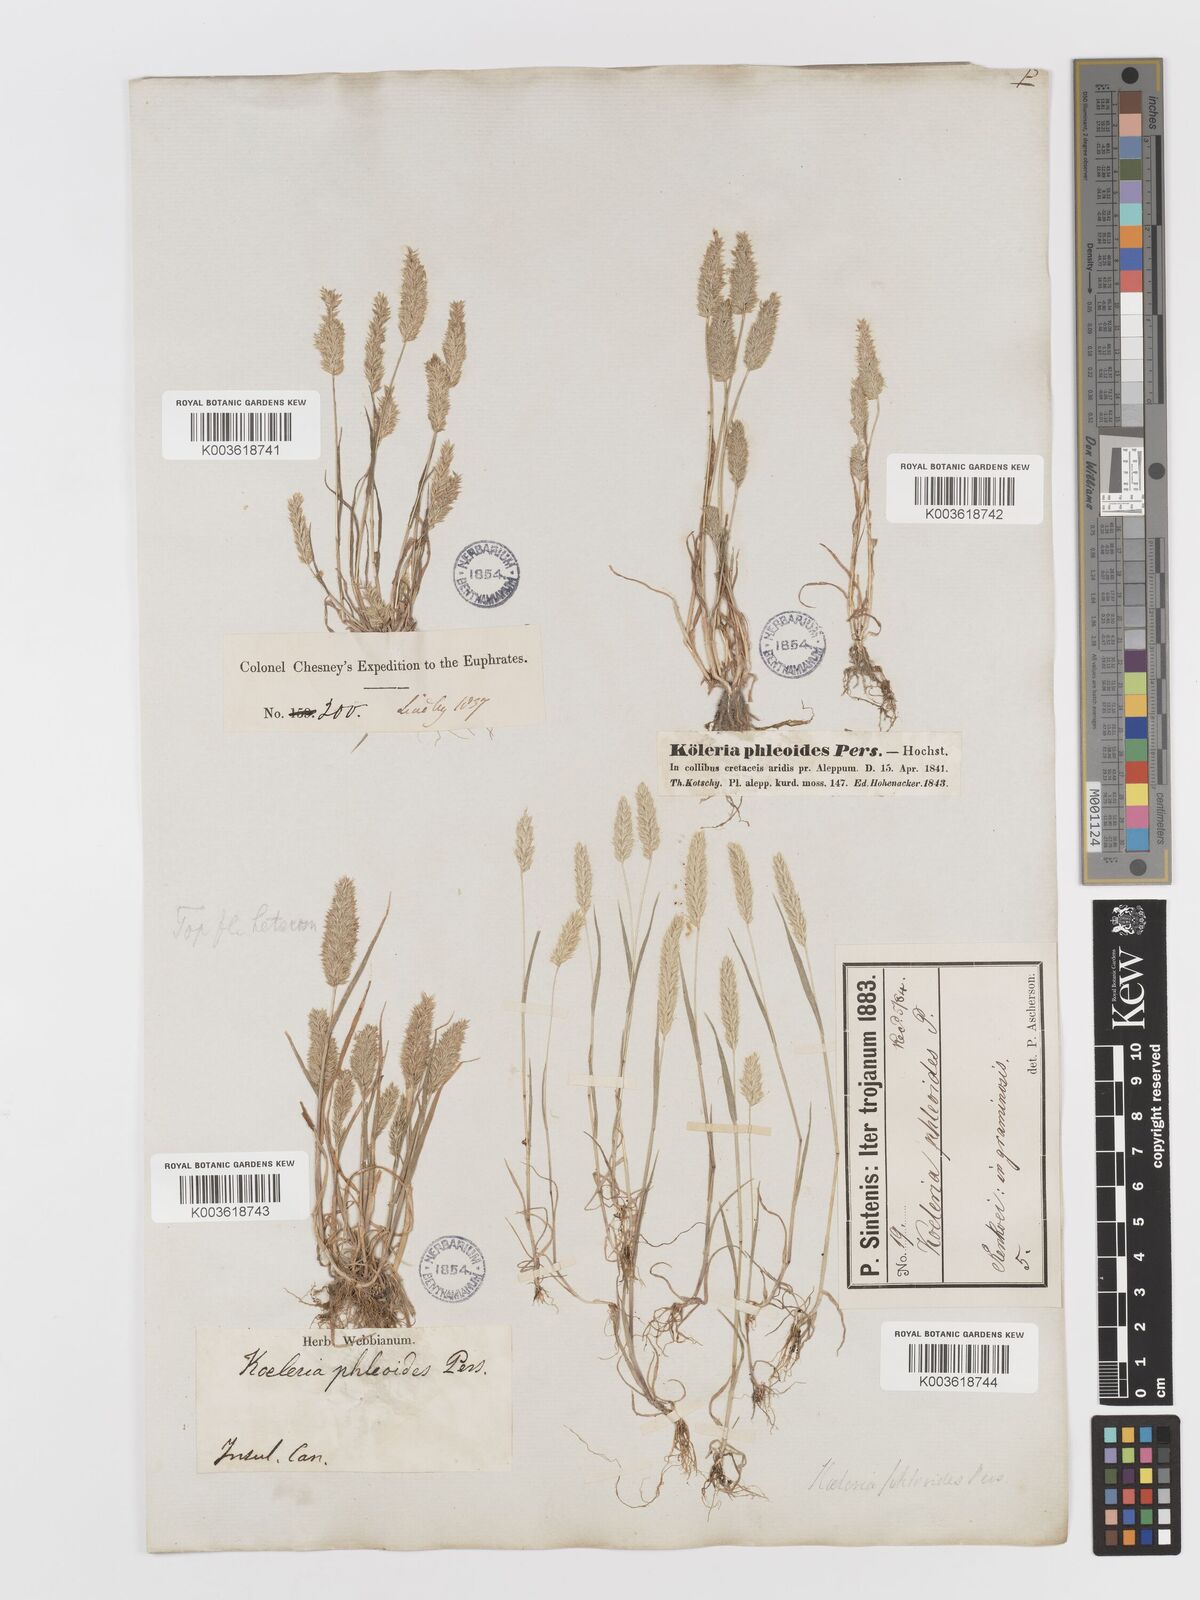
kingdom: Plantae
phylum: Tracheophyta
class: Liliopsida
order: Poales
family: Poaceae
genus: Rostraria
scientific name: Rostraria cristata
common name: Mediterranean hair-grass
